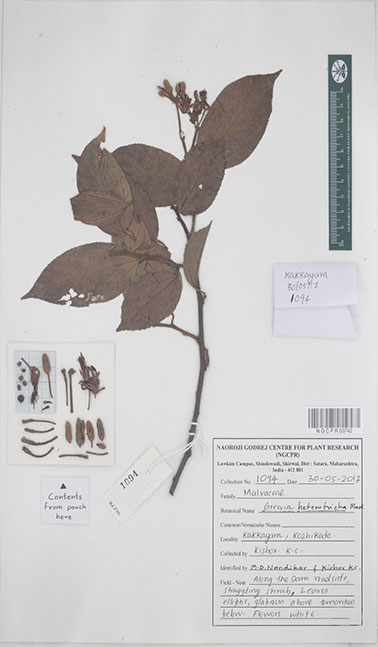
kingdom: Plantae
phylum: Tracheophyta
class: Magnoliopsida
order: Malvales
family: Malvaceae
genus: Grewia
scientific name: Grewia heterotricha
